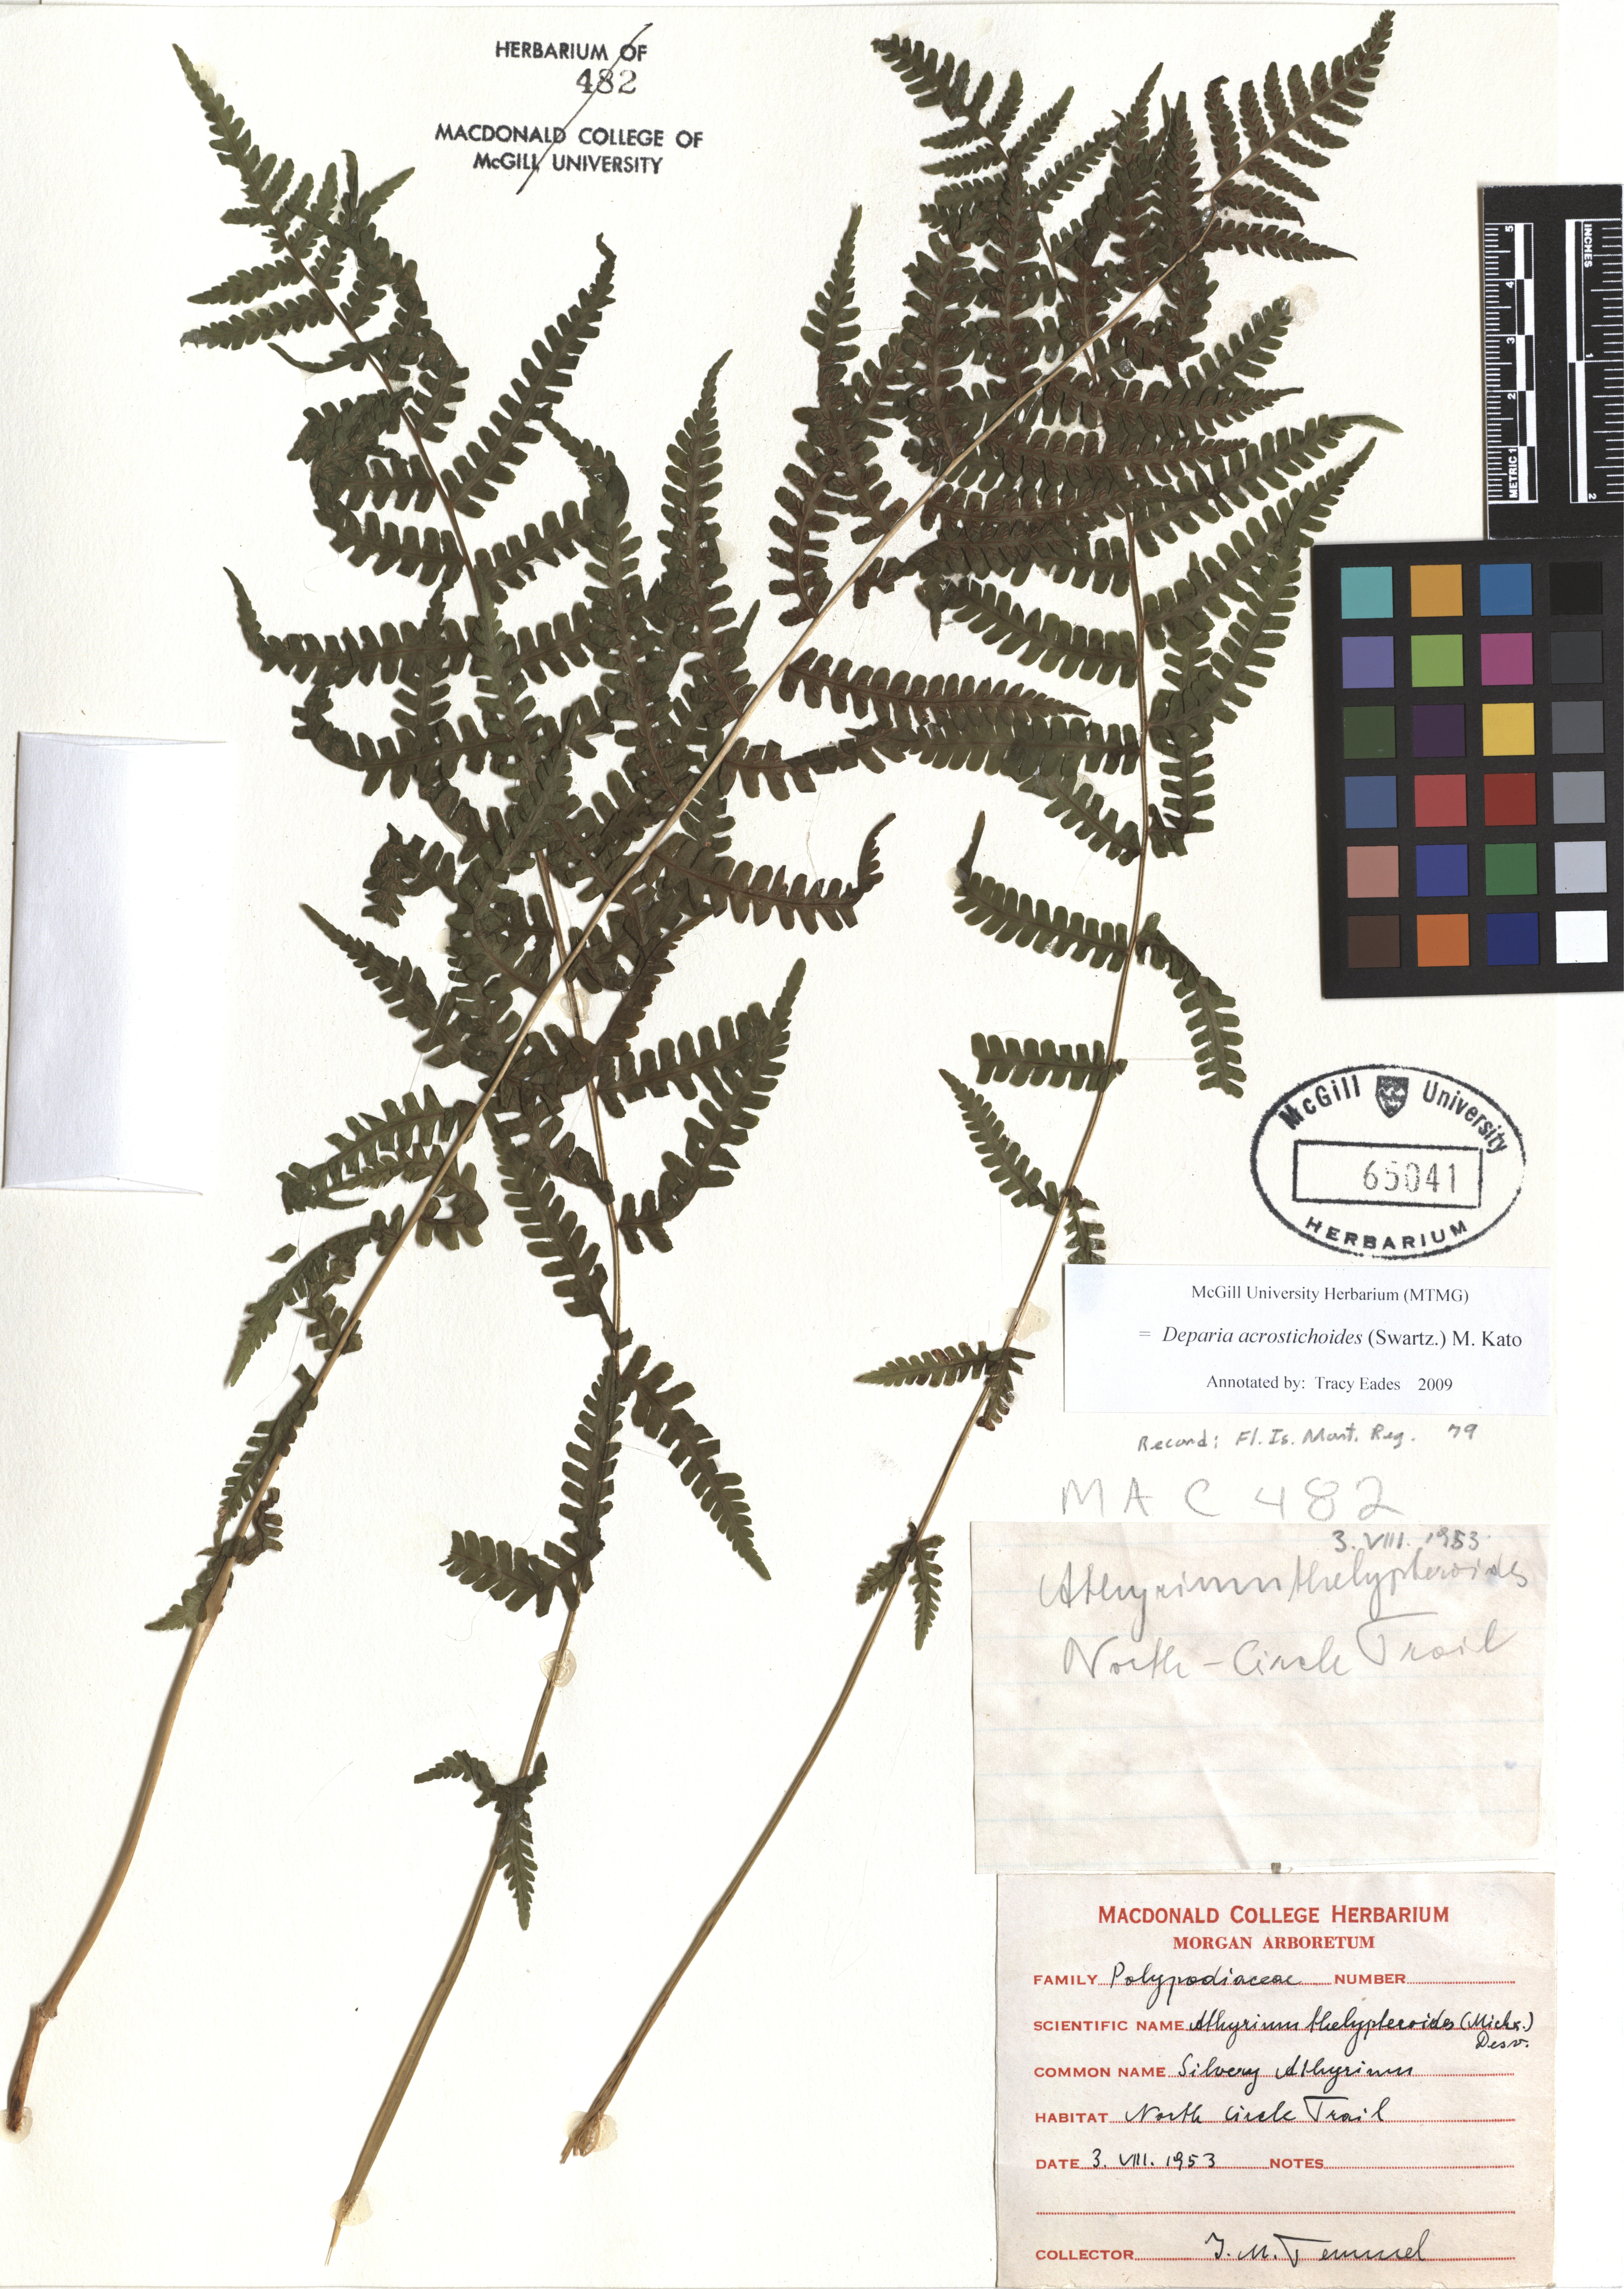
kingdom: Plantae
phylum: Tracheophyta
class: Polypodiopsida
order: Polypodiales
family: Athyriaceae
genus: Deparia
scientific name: Deparia acrostichoides
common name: Silver false spleenwort
